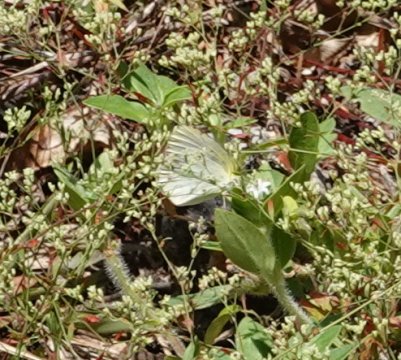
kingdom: Animalia
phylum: Arthropoda
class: Insecta
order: Lepidoptera
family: Pieridae
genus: Pyrisitia
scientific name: Pyrisitia lisa
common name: Little Yellow
